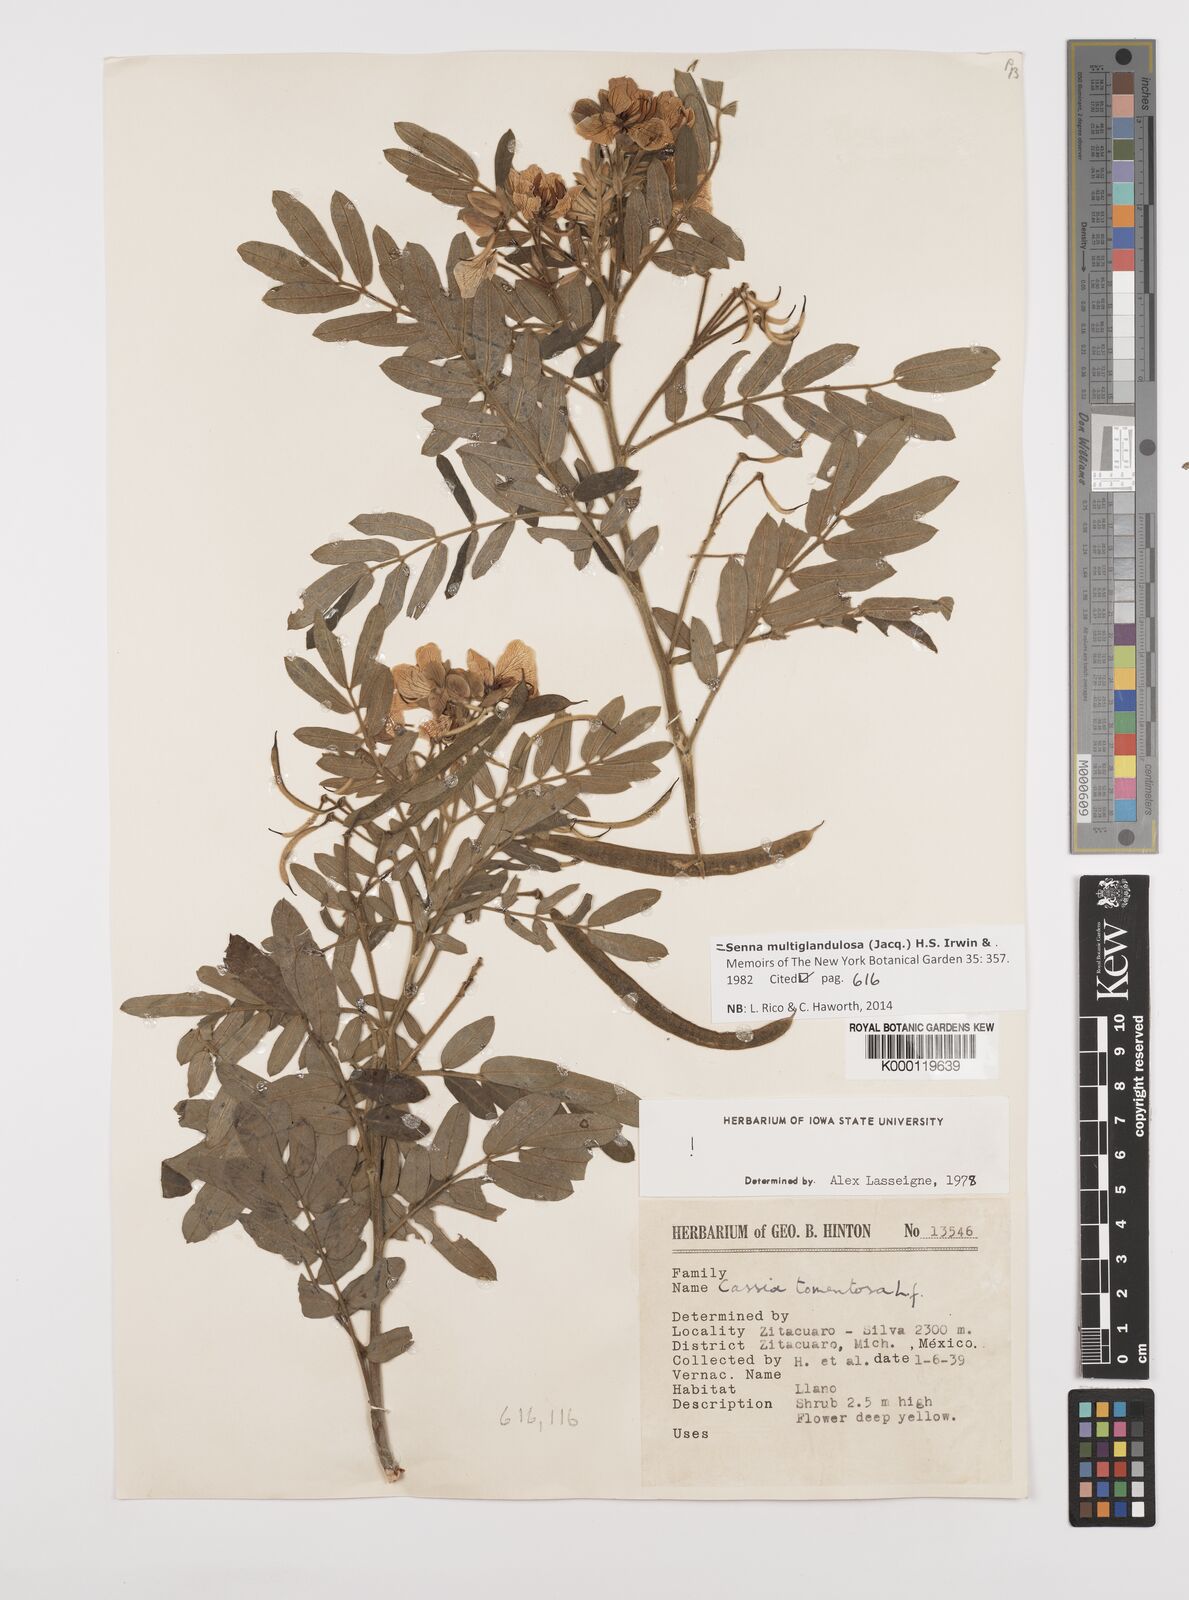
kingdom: Plantae
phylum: Tracheophyta
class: Magnoliopsida
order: Fabales
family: Fabaceae
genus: Senna
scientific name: Senna multiglandulosa
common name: Glandular senna
